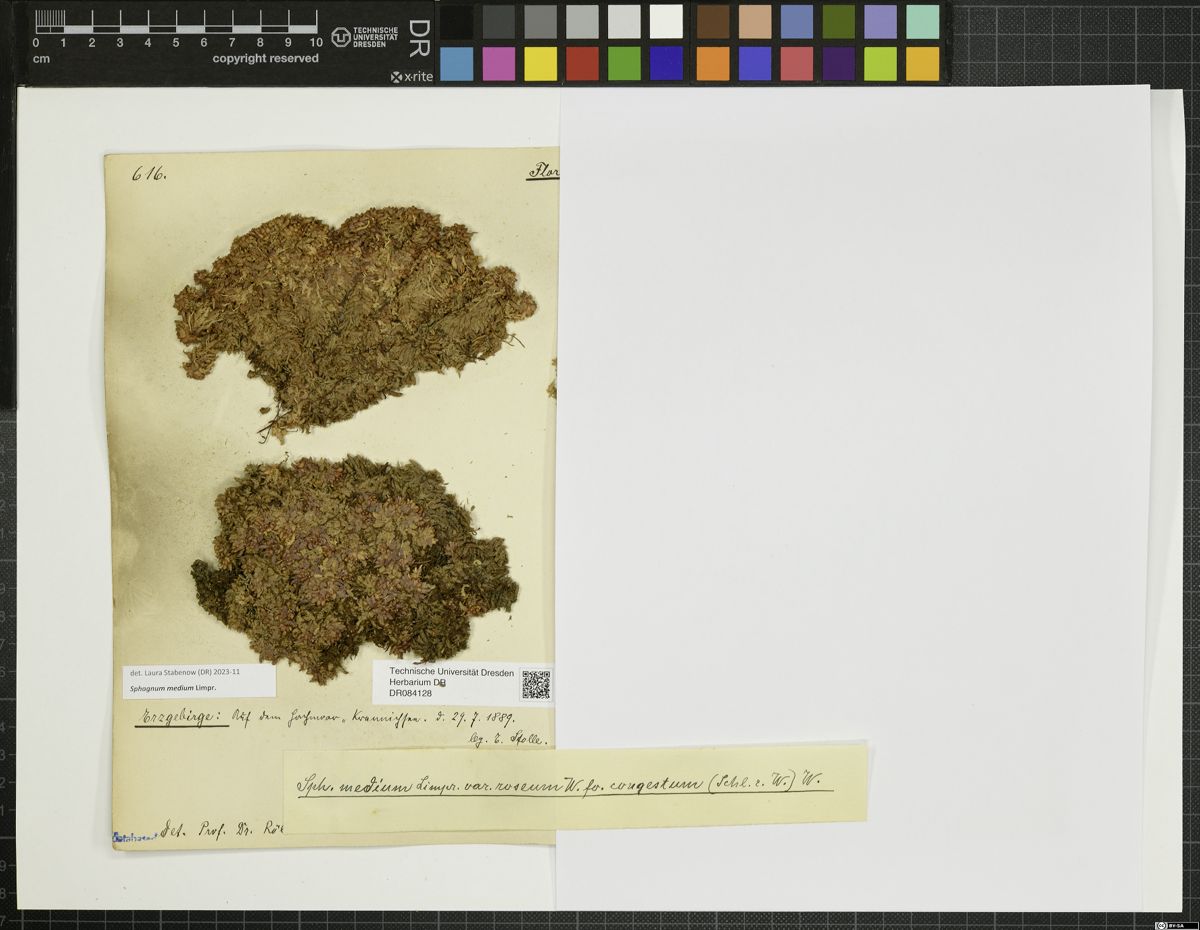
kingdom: Plantae
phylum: Bryophyta
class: Sphagnopsida
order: Sphagnales
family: Sphagnaceae
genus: Sphagnum
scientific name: Sphagnum medium
